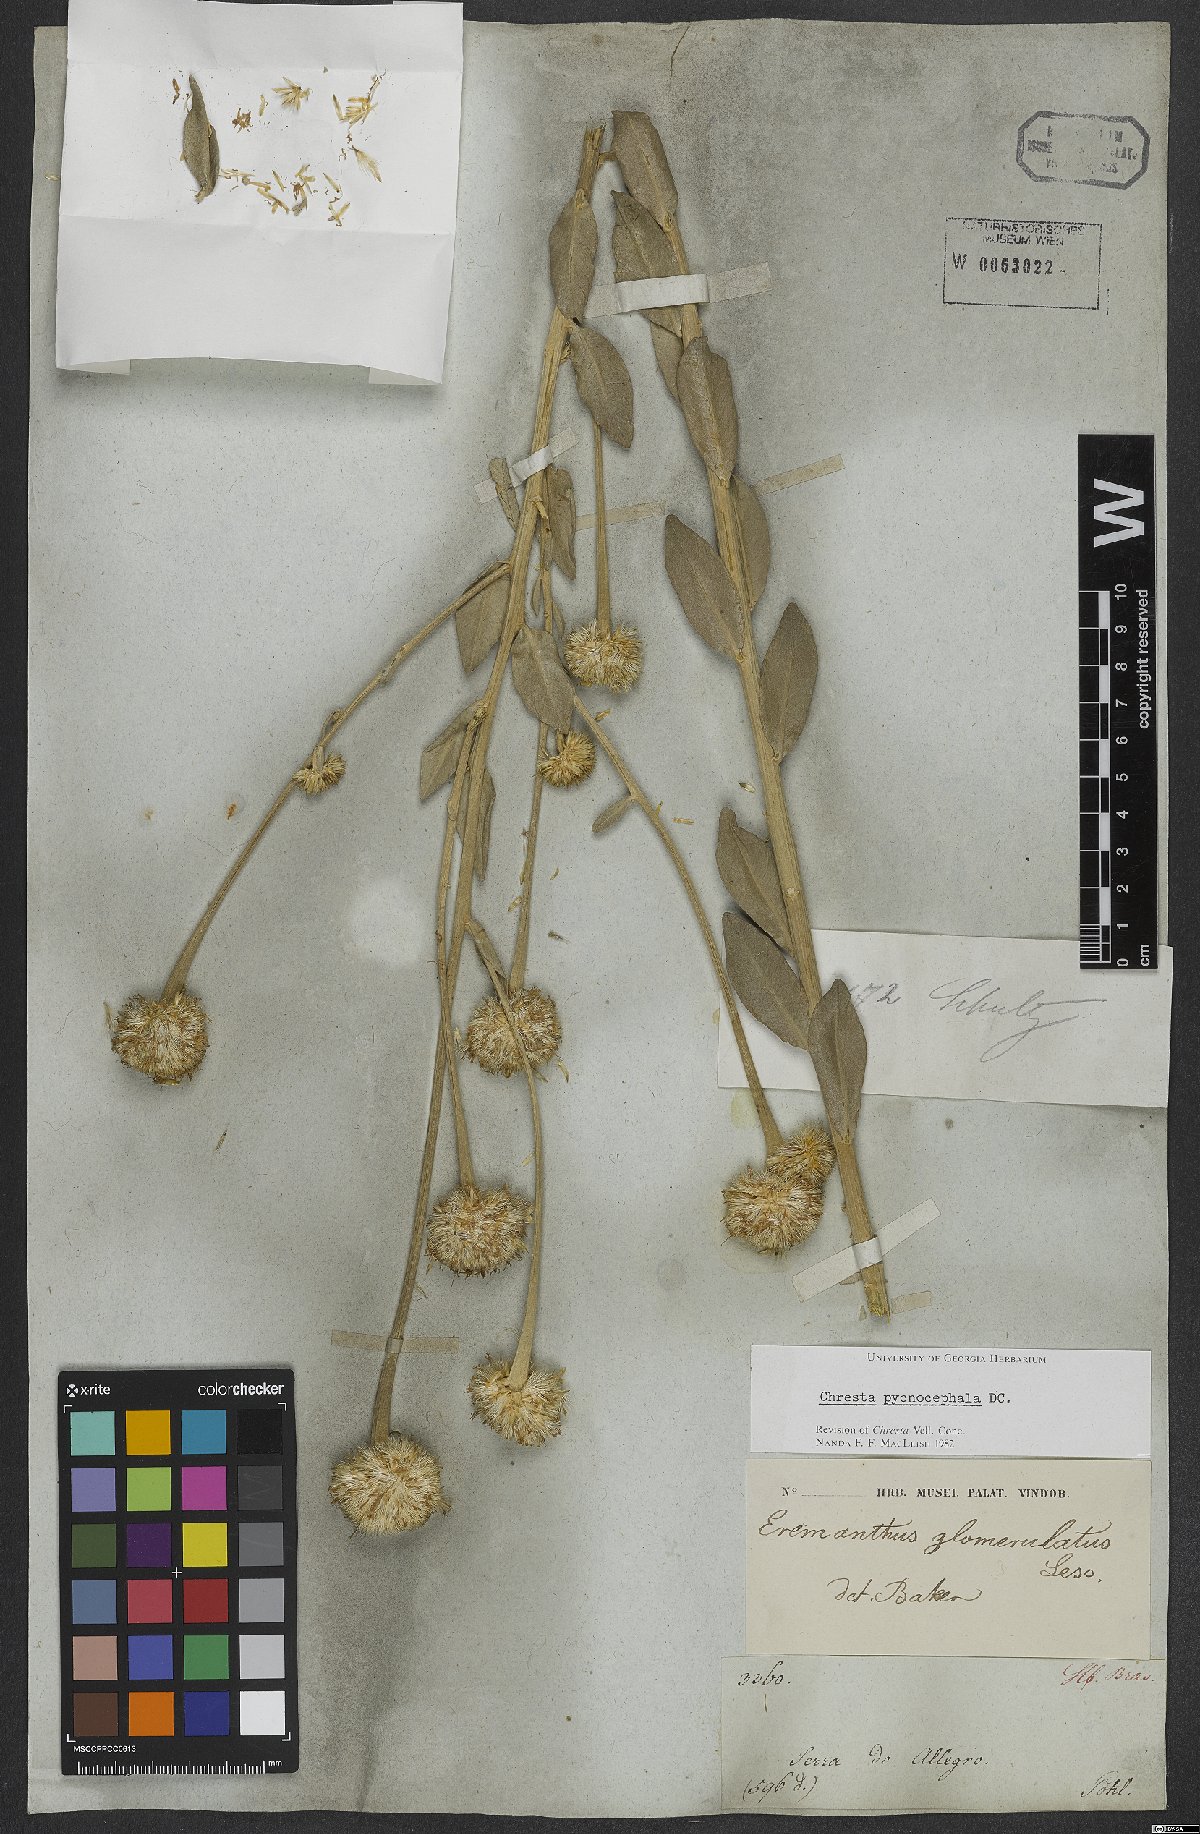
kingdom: Plantae
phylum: Tracheophyta
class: Magnoliopsida
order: Asterales
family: Asteraceae
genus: Chresta
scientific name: Chresta pycnocephala
